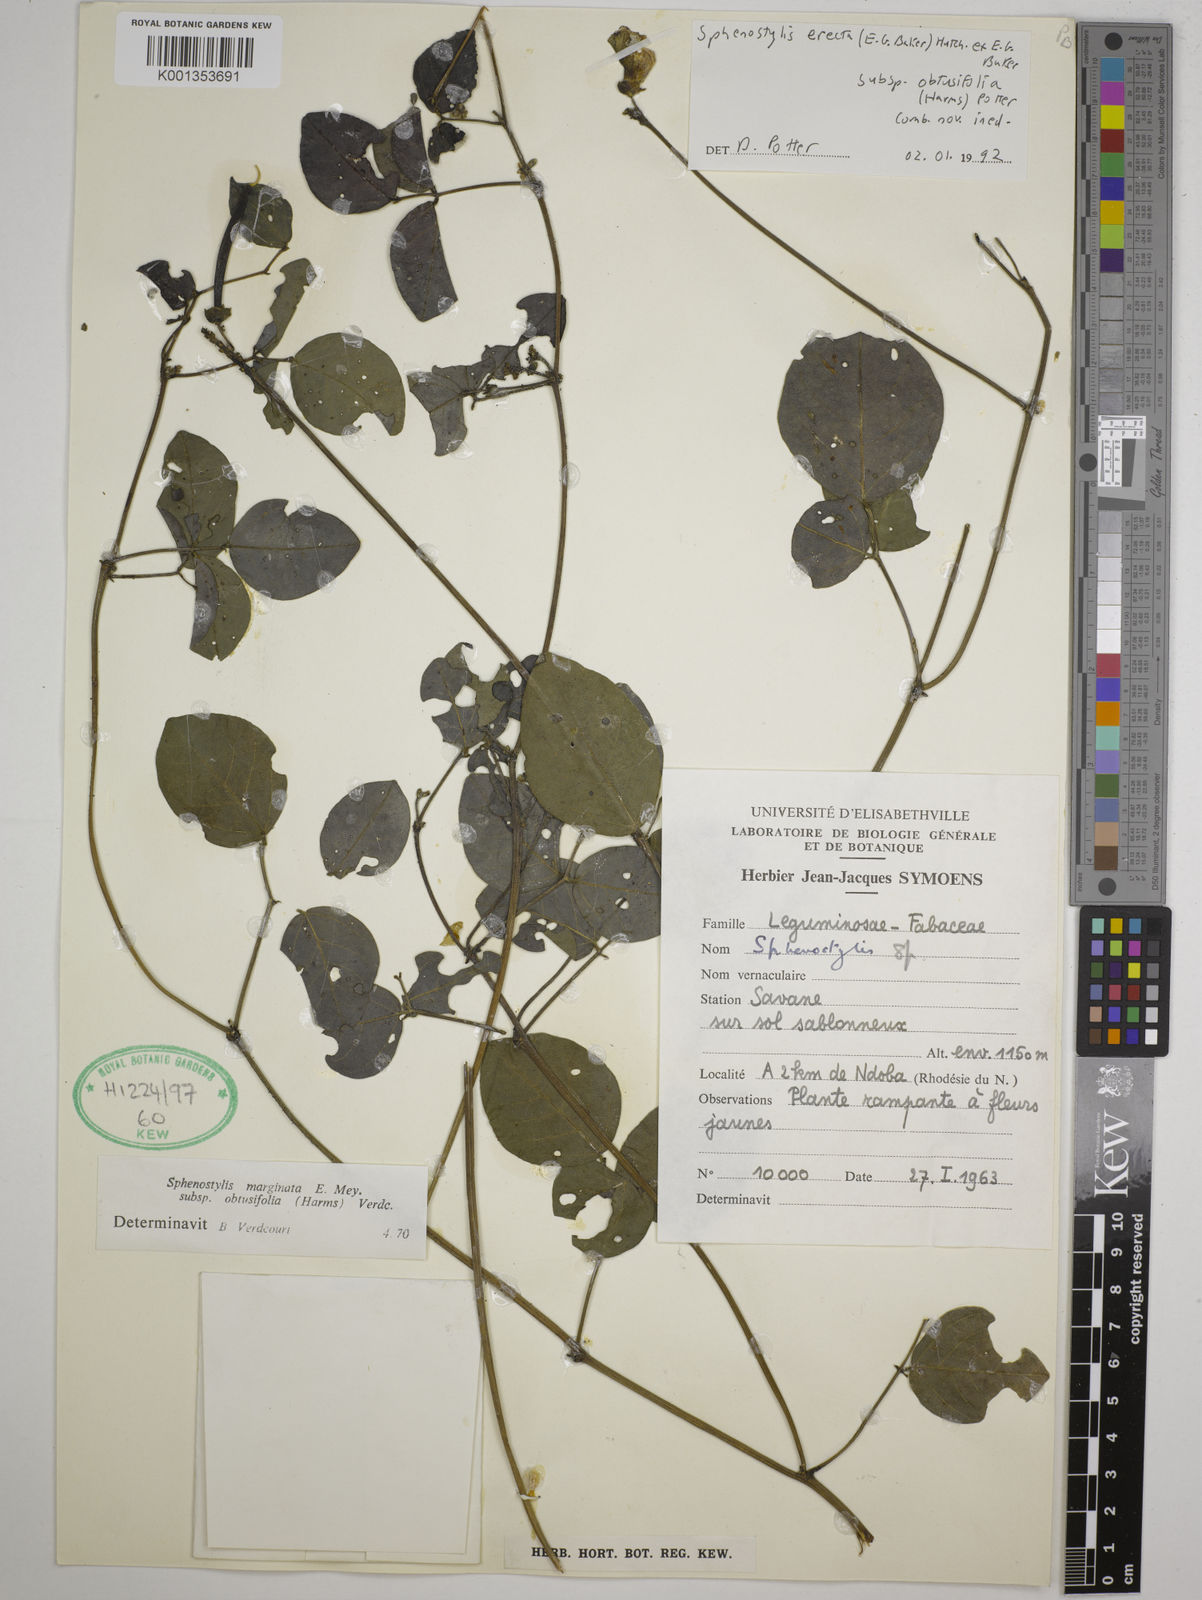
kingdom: Plantae
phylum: Tracheophyta
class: Magnoliopsida
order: Fabales
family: Fabaceae
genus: Sphenostylis
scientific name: Sphenostylis erecta
